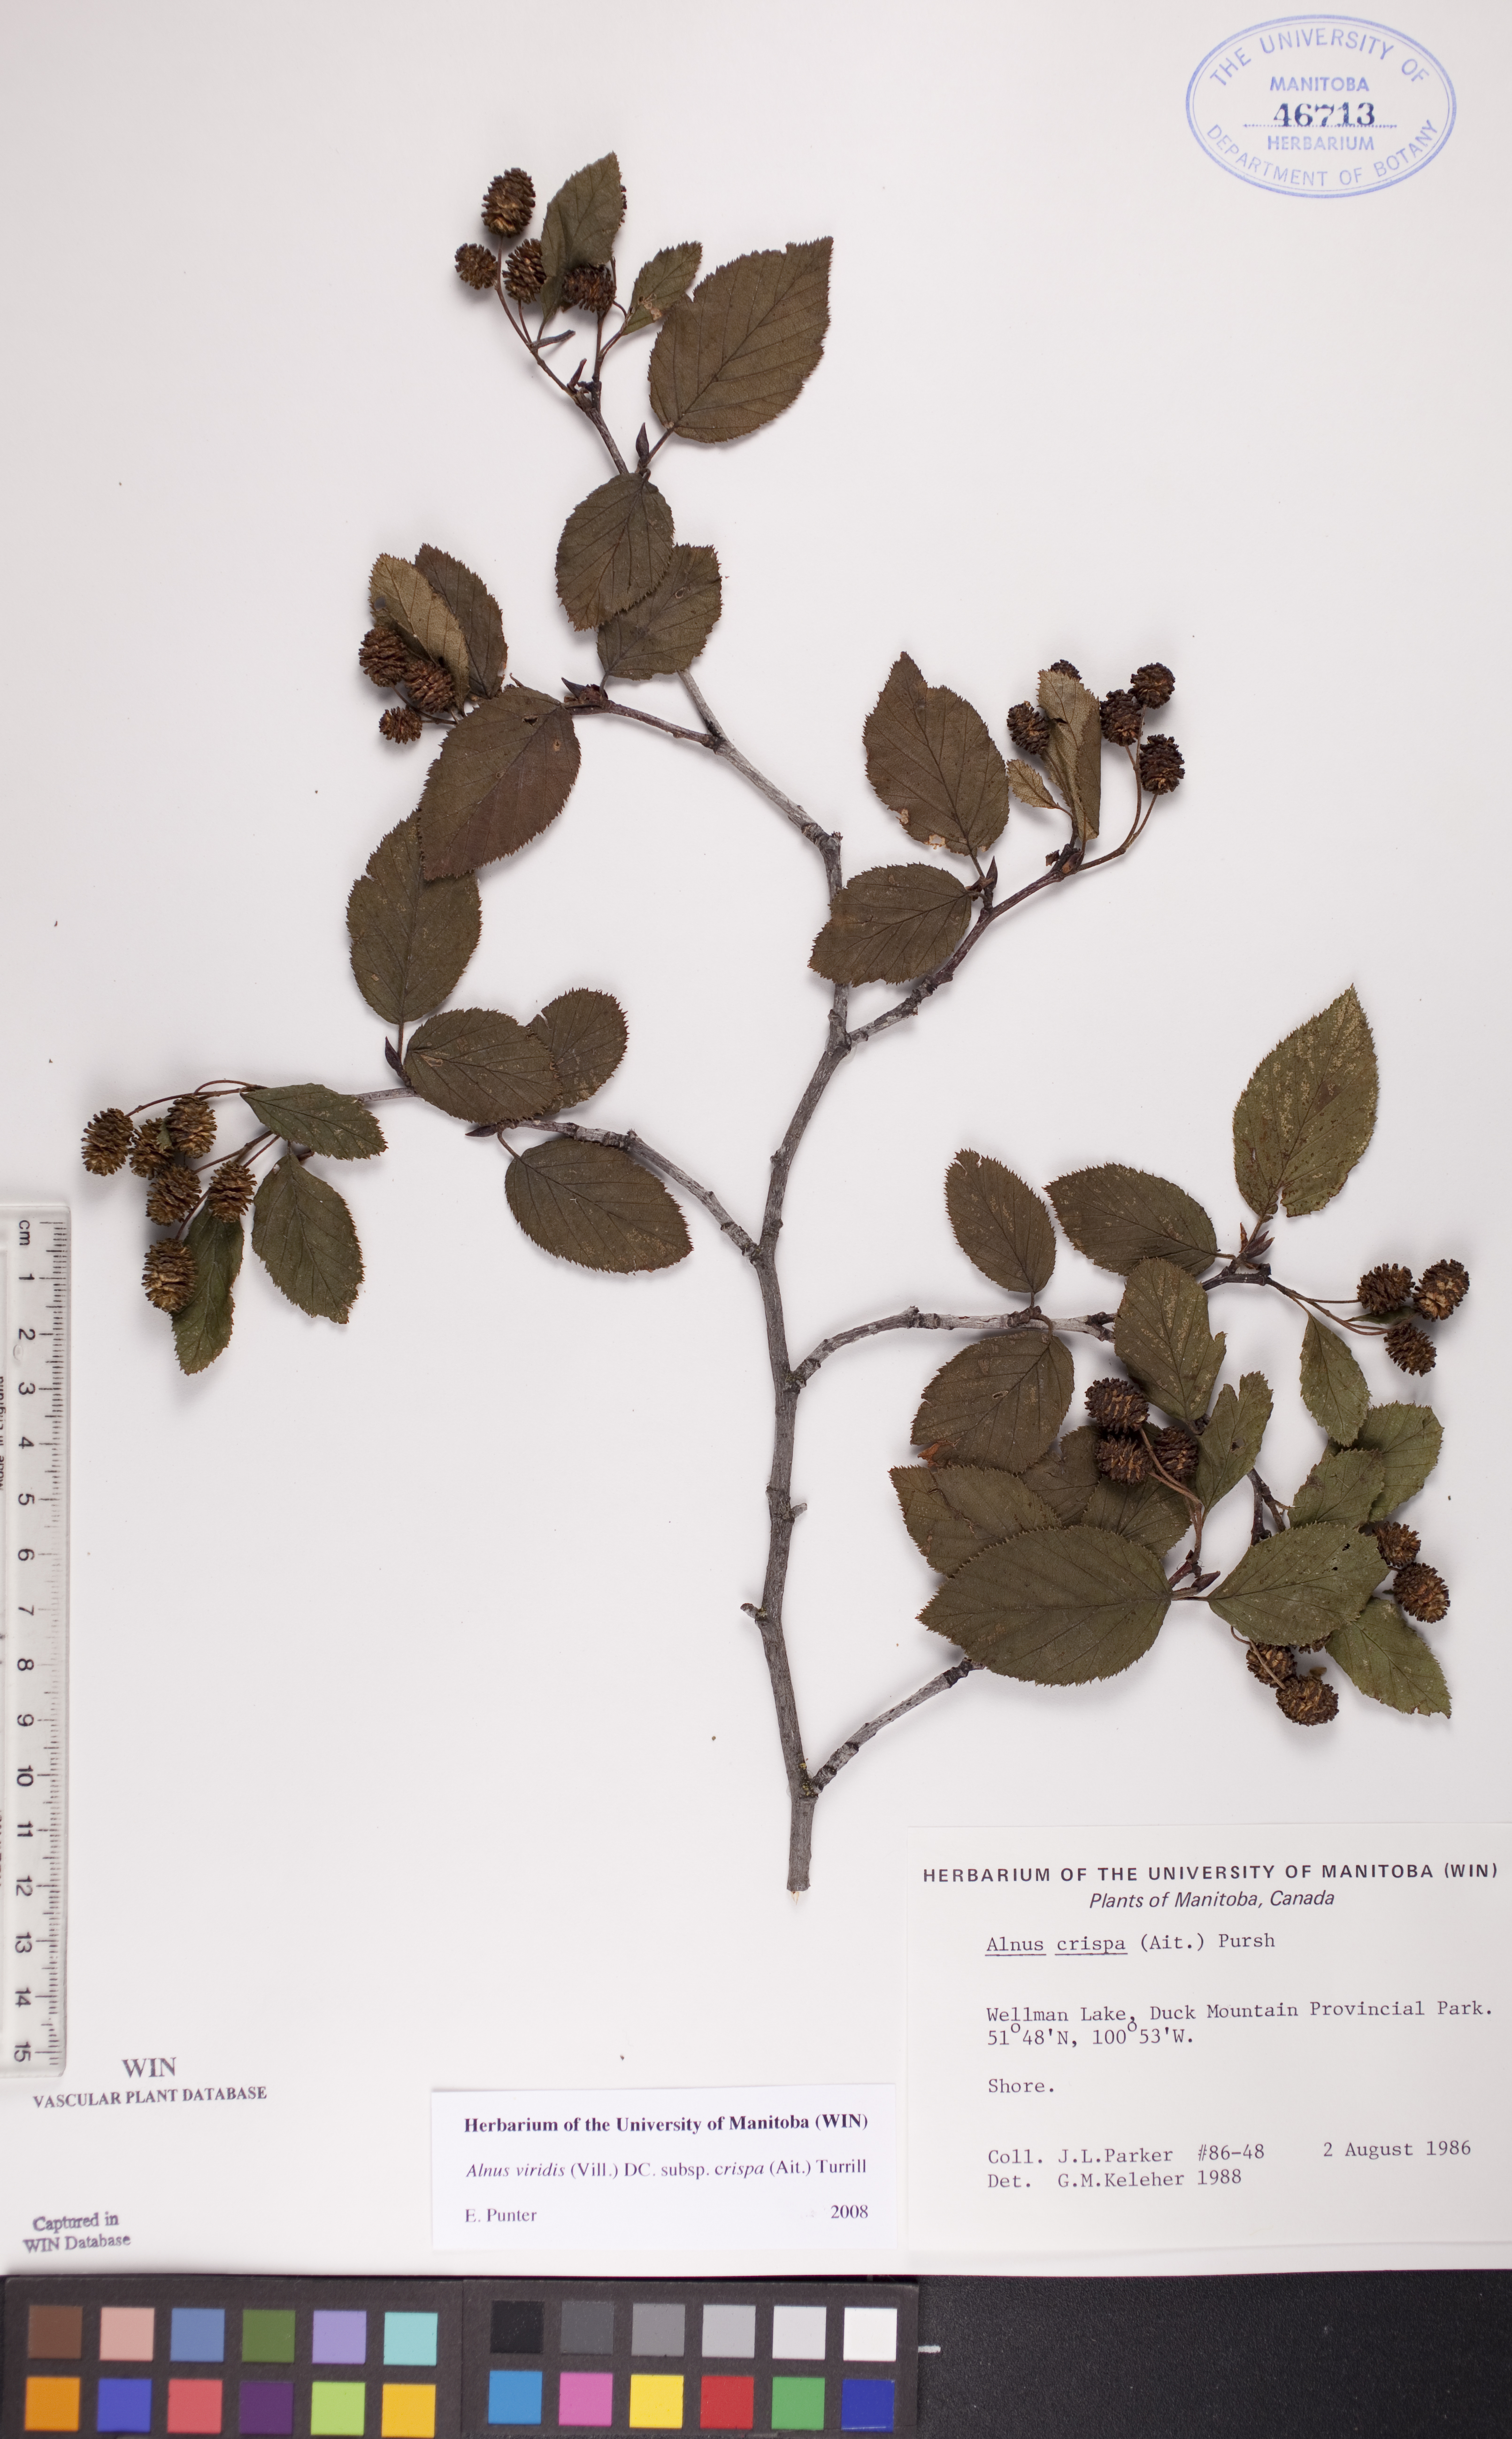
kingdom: Plantae
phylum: Tracheophyta
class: Magnoliopsida
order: Fagales
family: Betulaceae
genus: Alnus
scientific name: Alnus alnobetula
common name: Green alder
